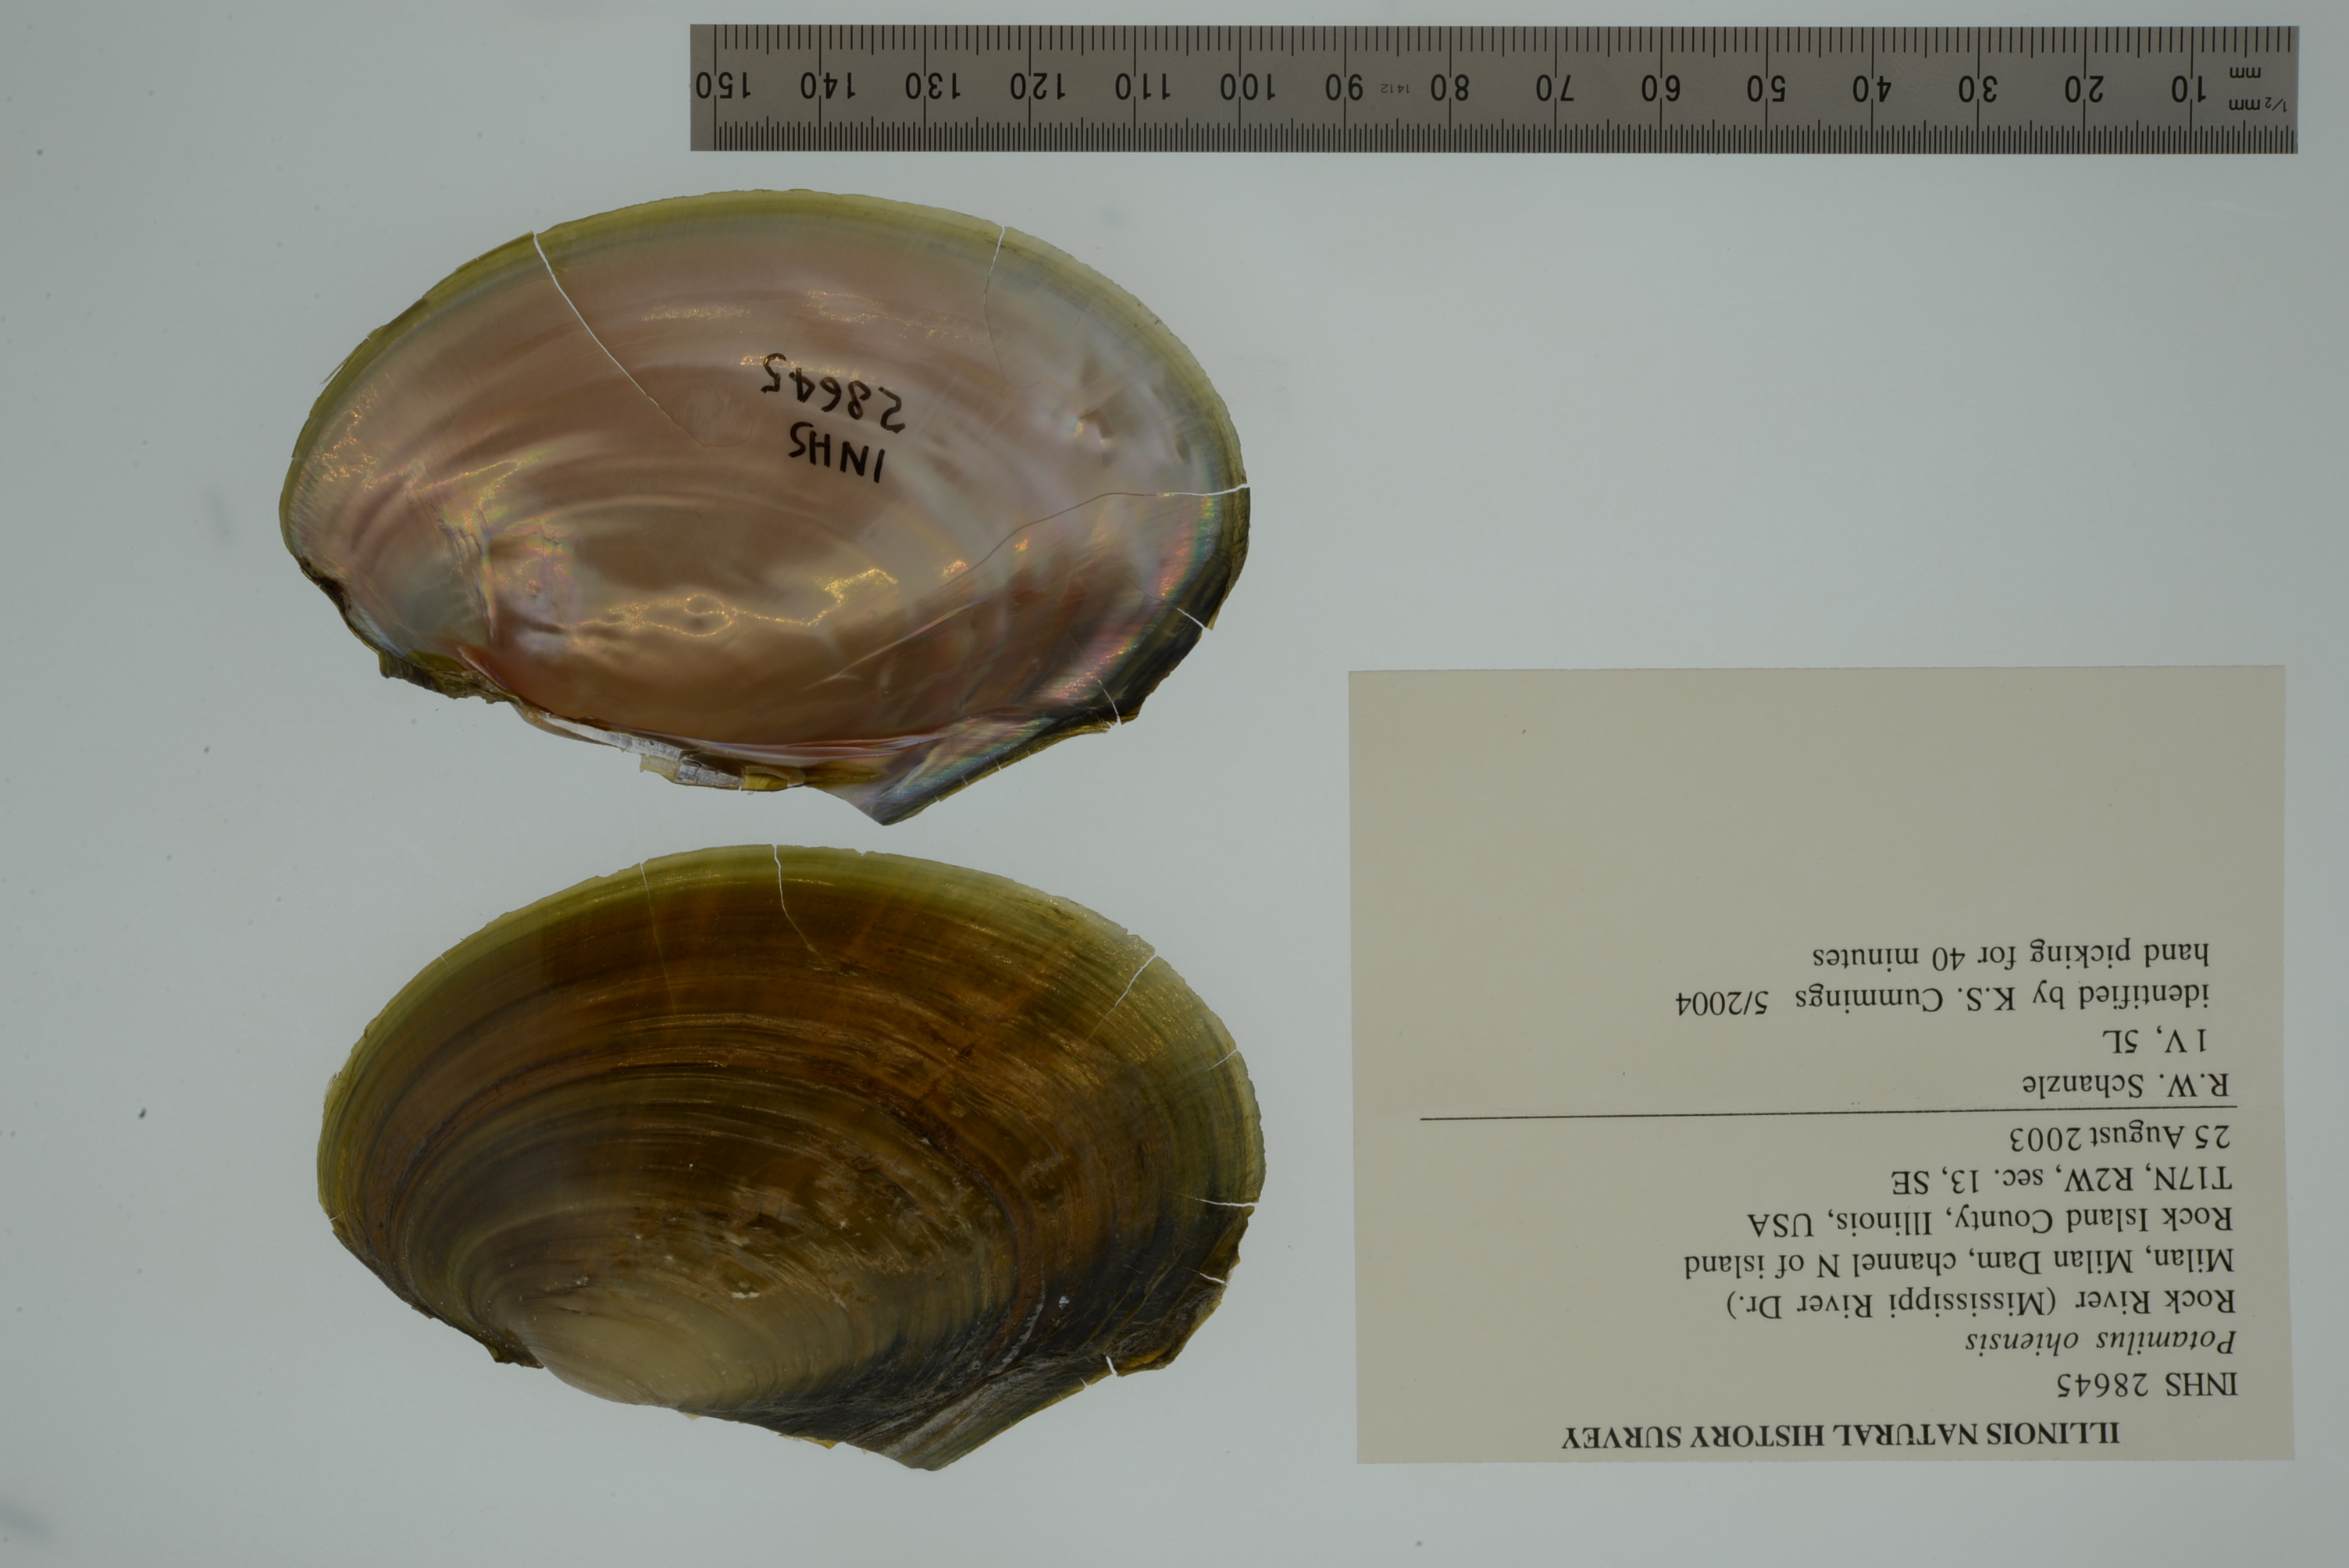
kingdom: Animalia
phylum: Mollusca
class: Bivalvia
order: Unionida
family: Unionidae
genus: Potamilus
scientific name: Potamilus ohiensis
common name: Pink papershell
